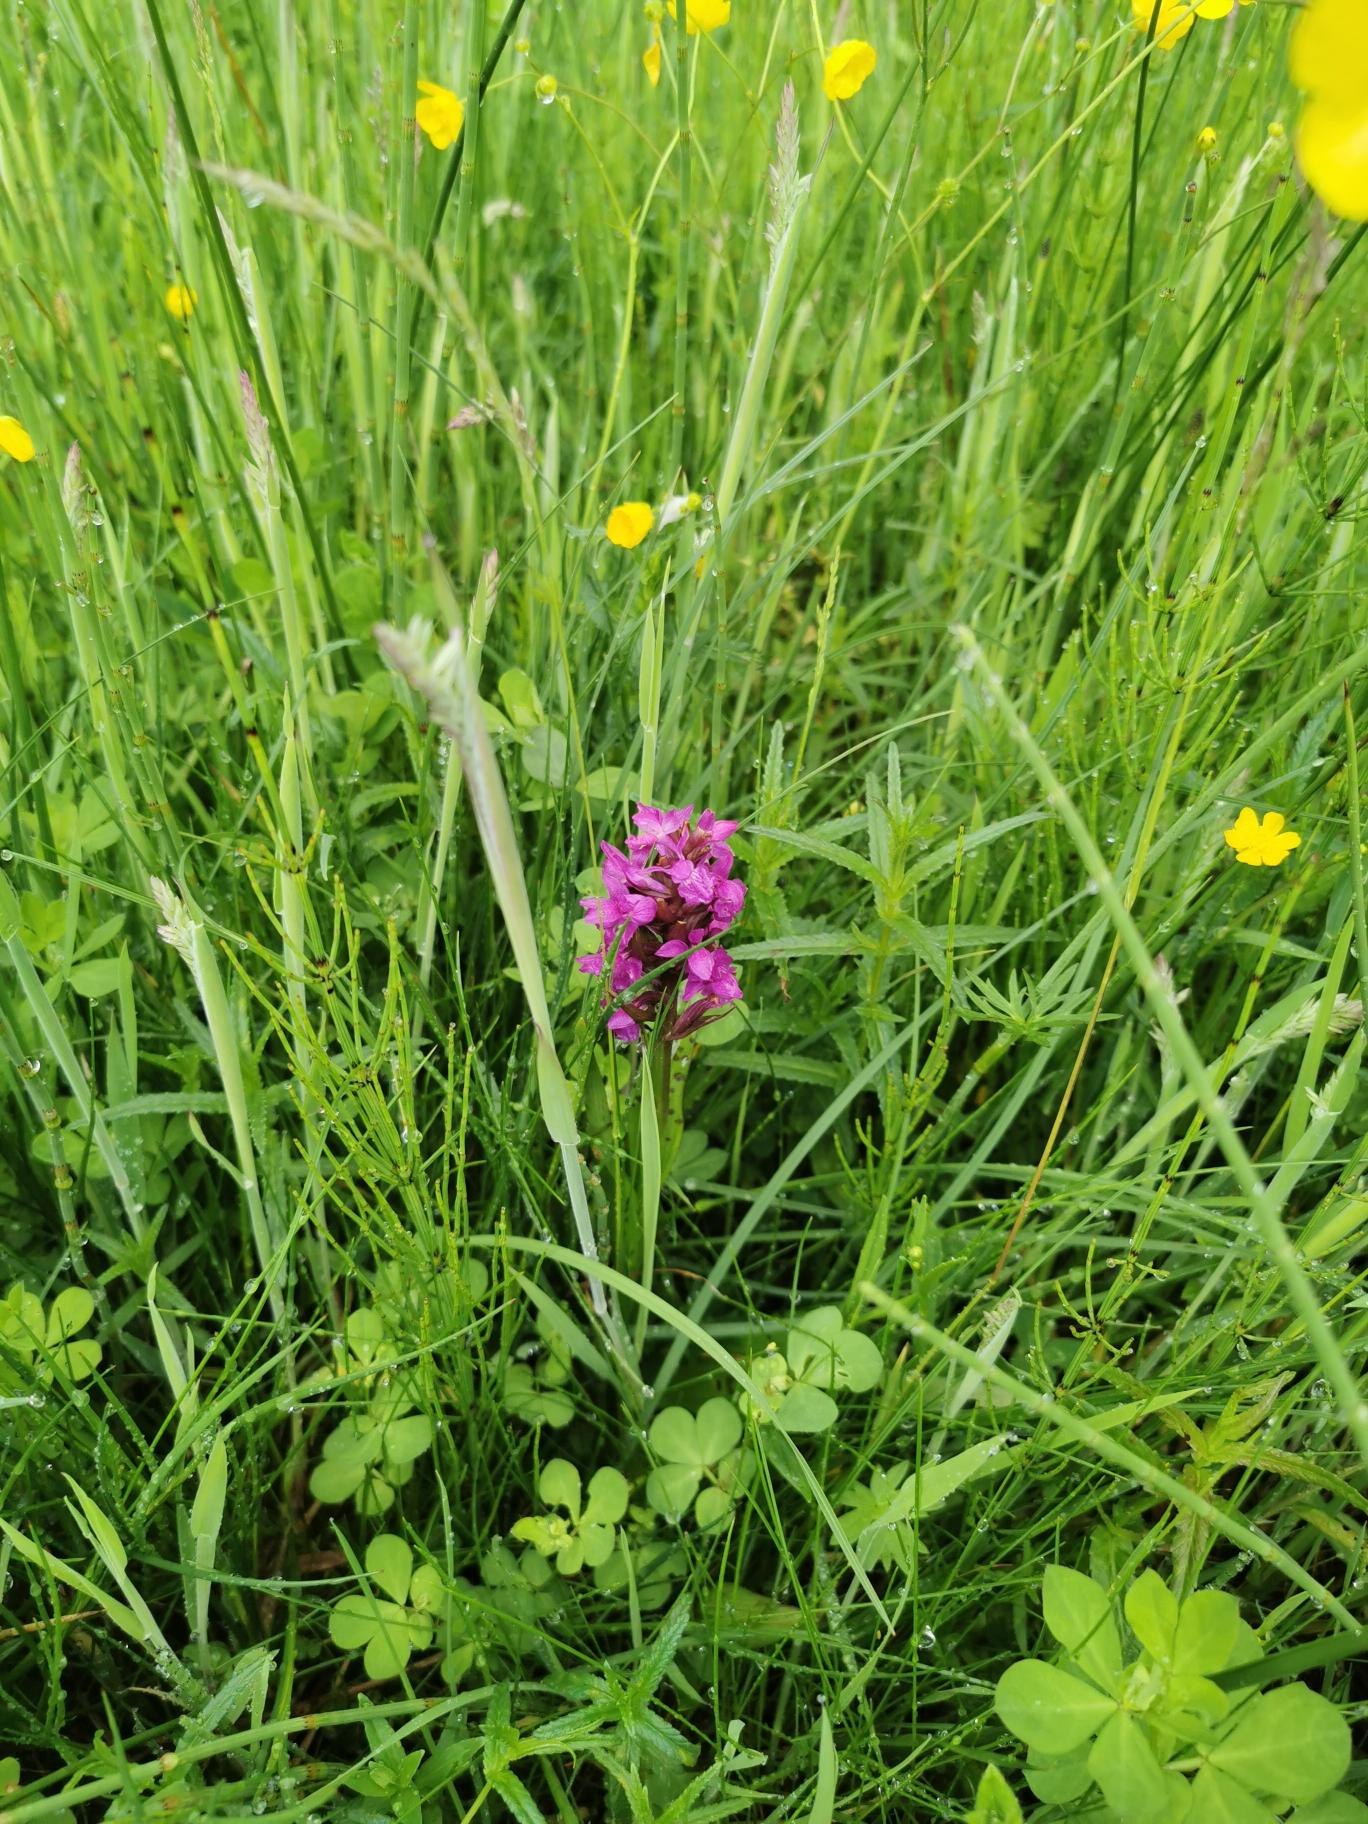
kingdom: Plantae
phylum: Tracheophyta
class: Liliopsida
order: Asparagales
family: Orchidaceae
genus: Dactylorhiza
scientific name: Dactylorhiza majalis
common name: Maj-gøgeurt
